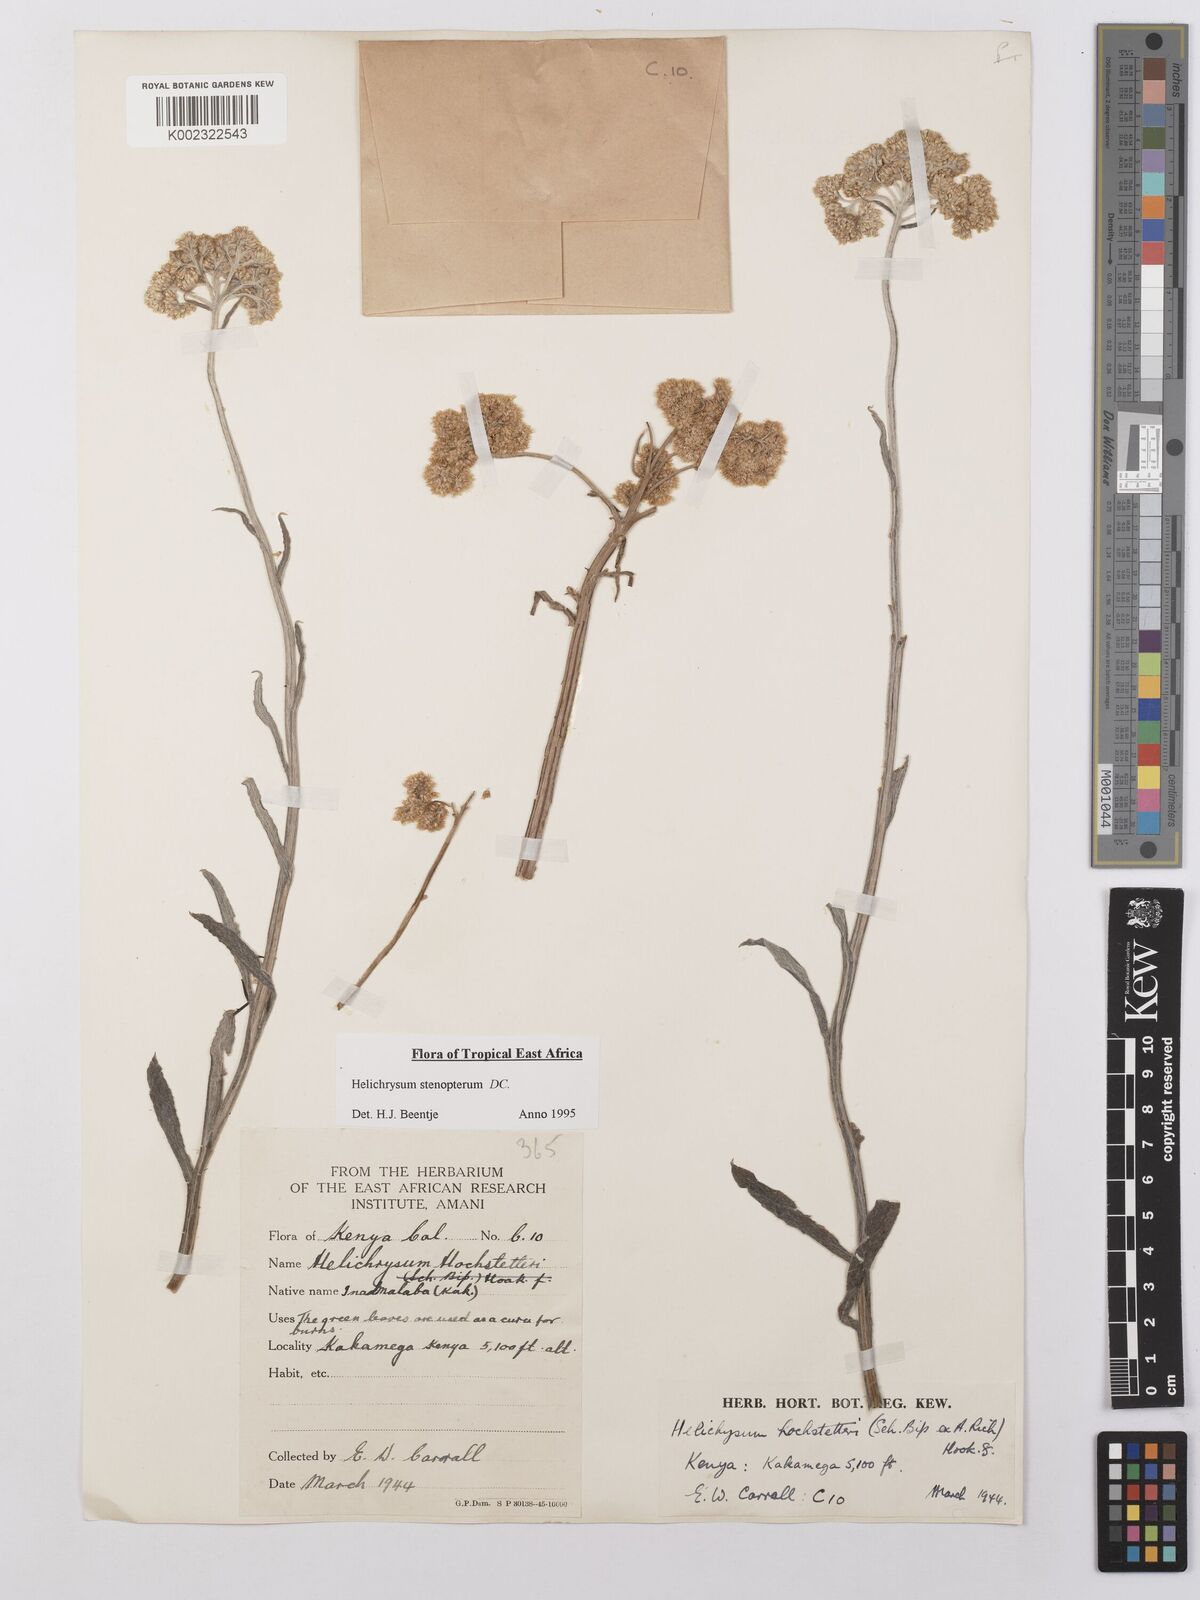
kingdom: Plantae
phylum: Tracheophyta
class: Magnoliopsida
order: Asterales
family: Asteraceae
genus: Helichrysum
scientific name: Helichrysum stenopterum
